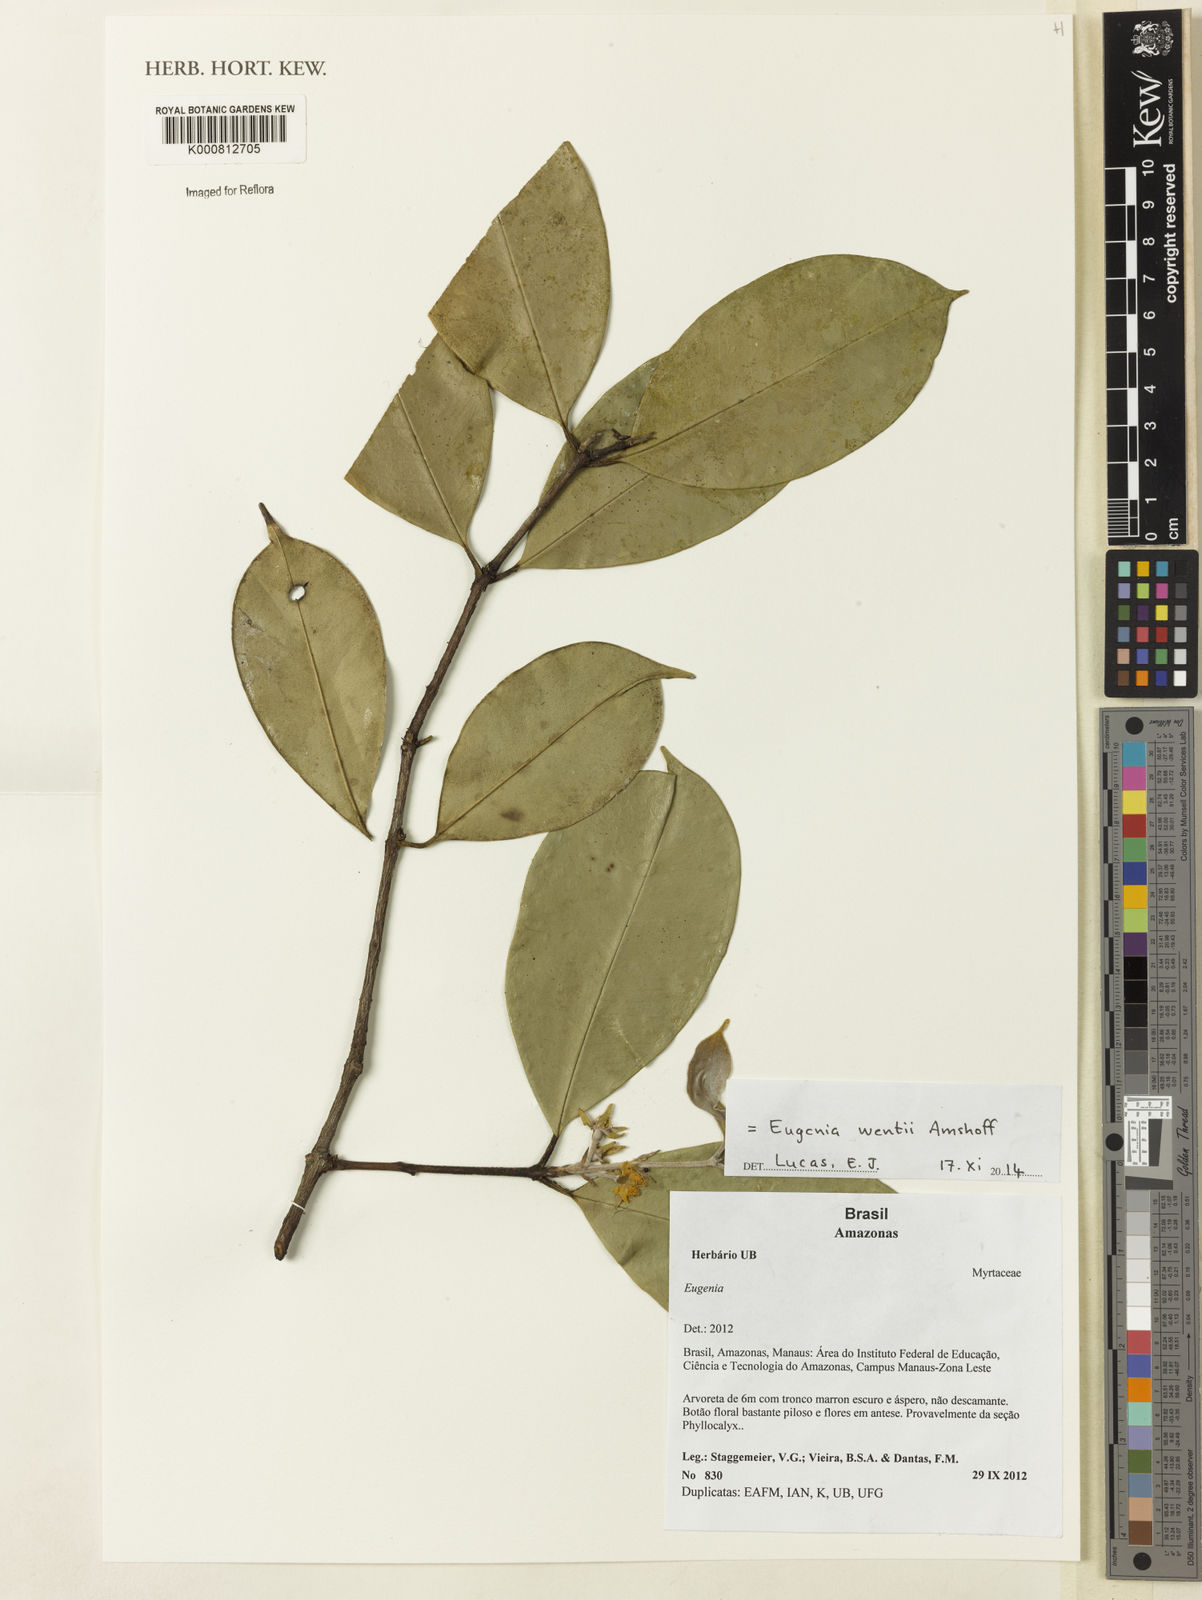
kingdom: Plantae
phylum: Tracheophyta
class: Magnoliopsida
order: Myrtales
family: Myrtaceae
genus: Eugenia
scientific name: Eugenia
